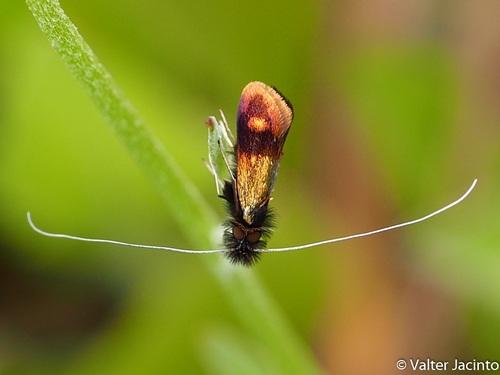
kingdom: Animalia
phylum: Arthropoda
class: Insecta
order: Lepidoptera
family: Adelidae
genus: Nemophora
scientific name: Nemophora barbatella
